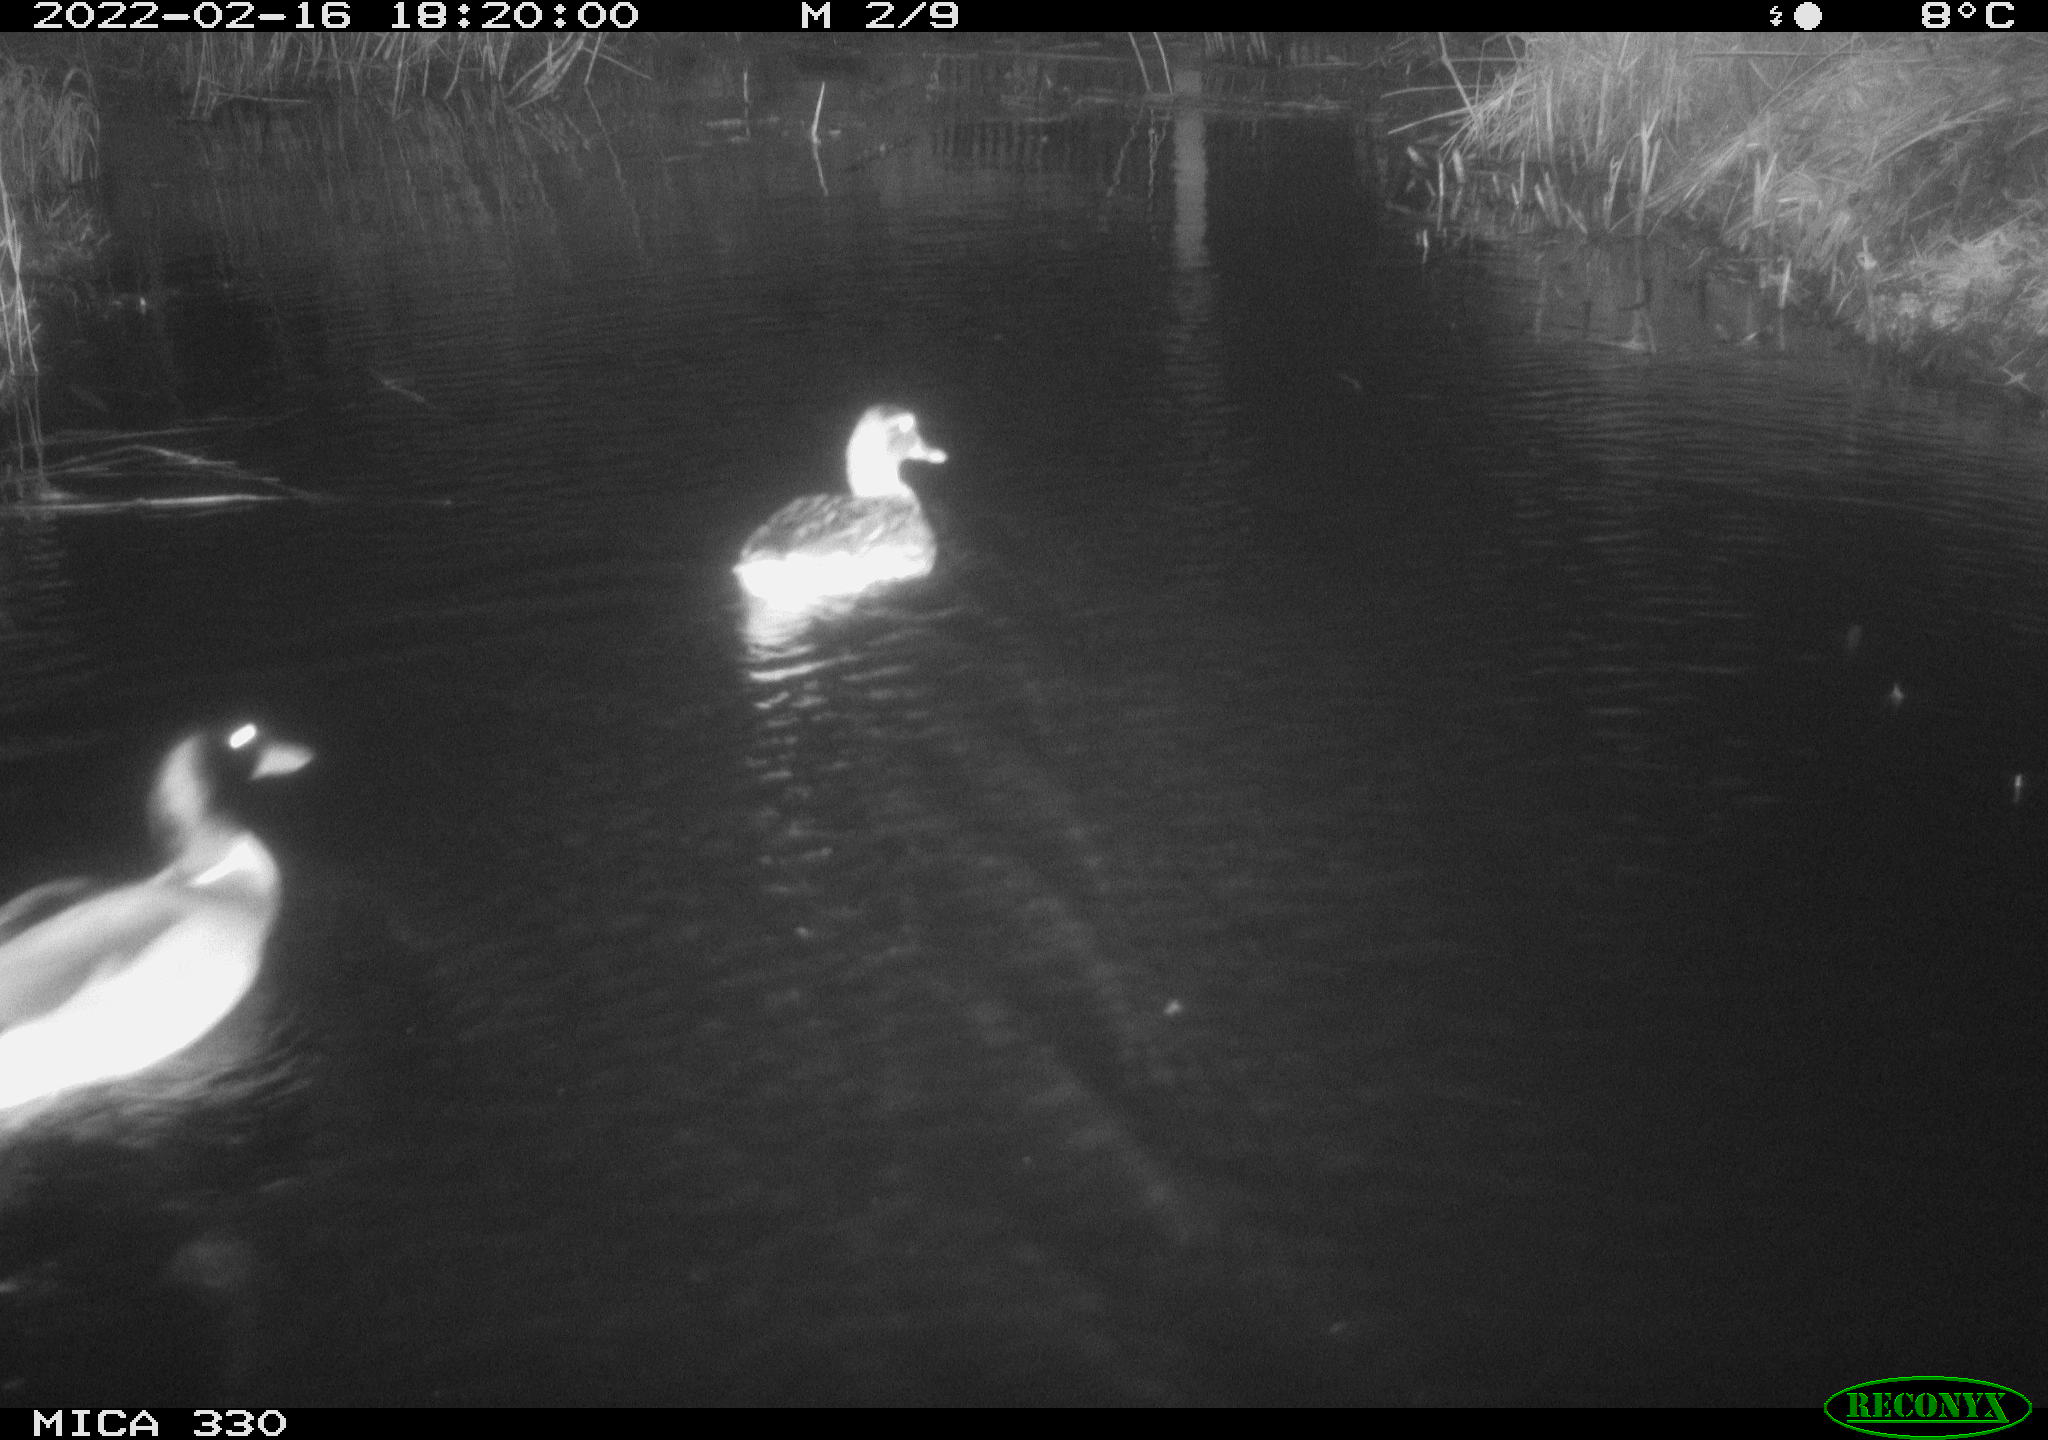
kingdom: Animalia
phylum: Chordata
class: Aves
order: Anseriformes
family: Anatidae
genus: Anas
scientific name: Anas platyrhynchos
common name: Mallard
